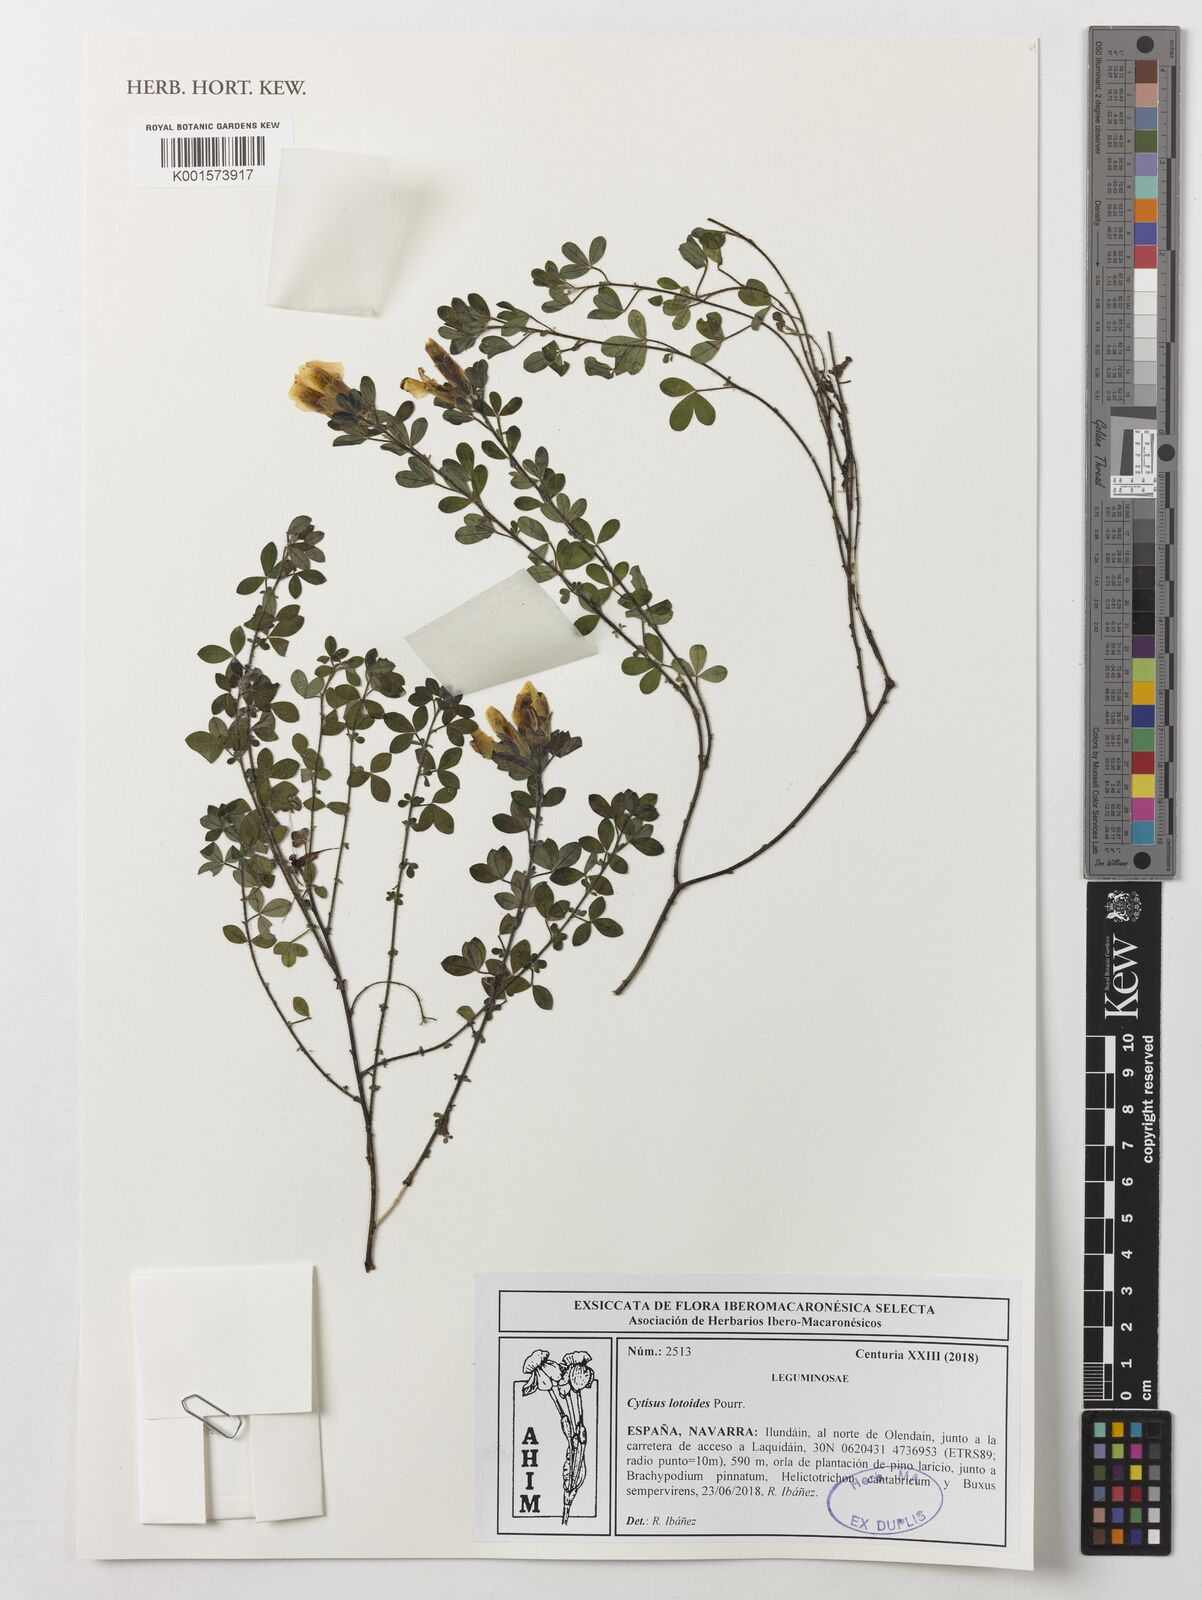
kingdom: Plantae
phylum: Tracheophyta
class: Magnoliopsida
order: Fabales
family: Fabaceae
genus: Chamaecytisus
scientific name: Chamaecytisus supinus
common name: Clustered broom
